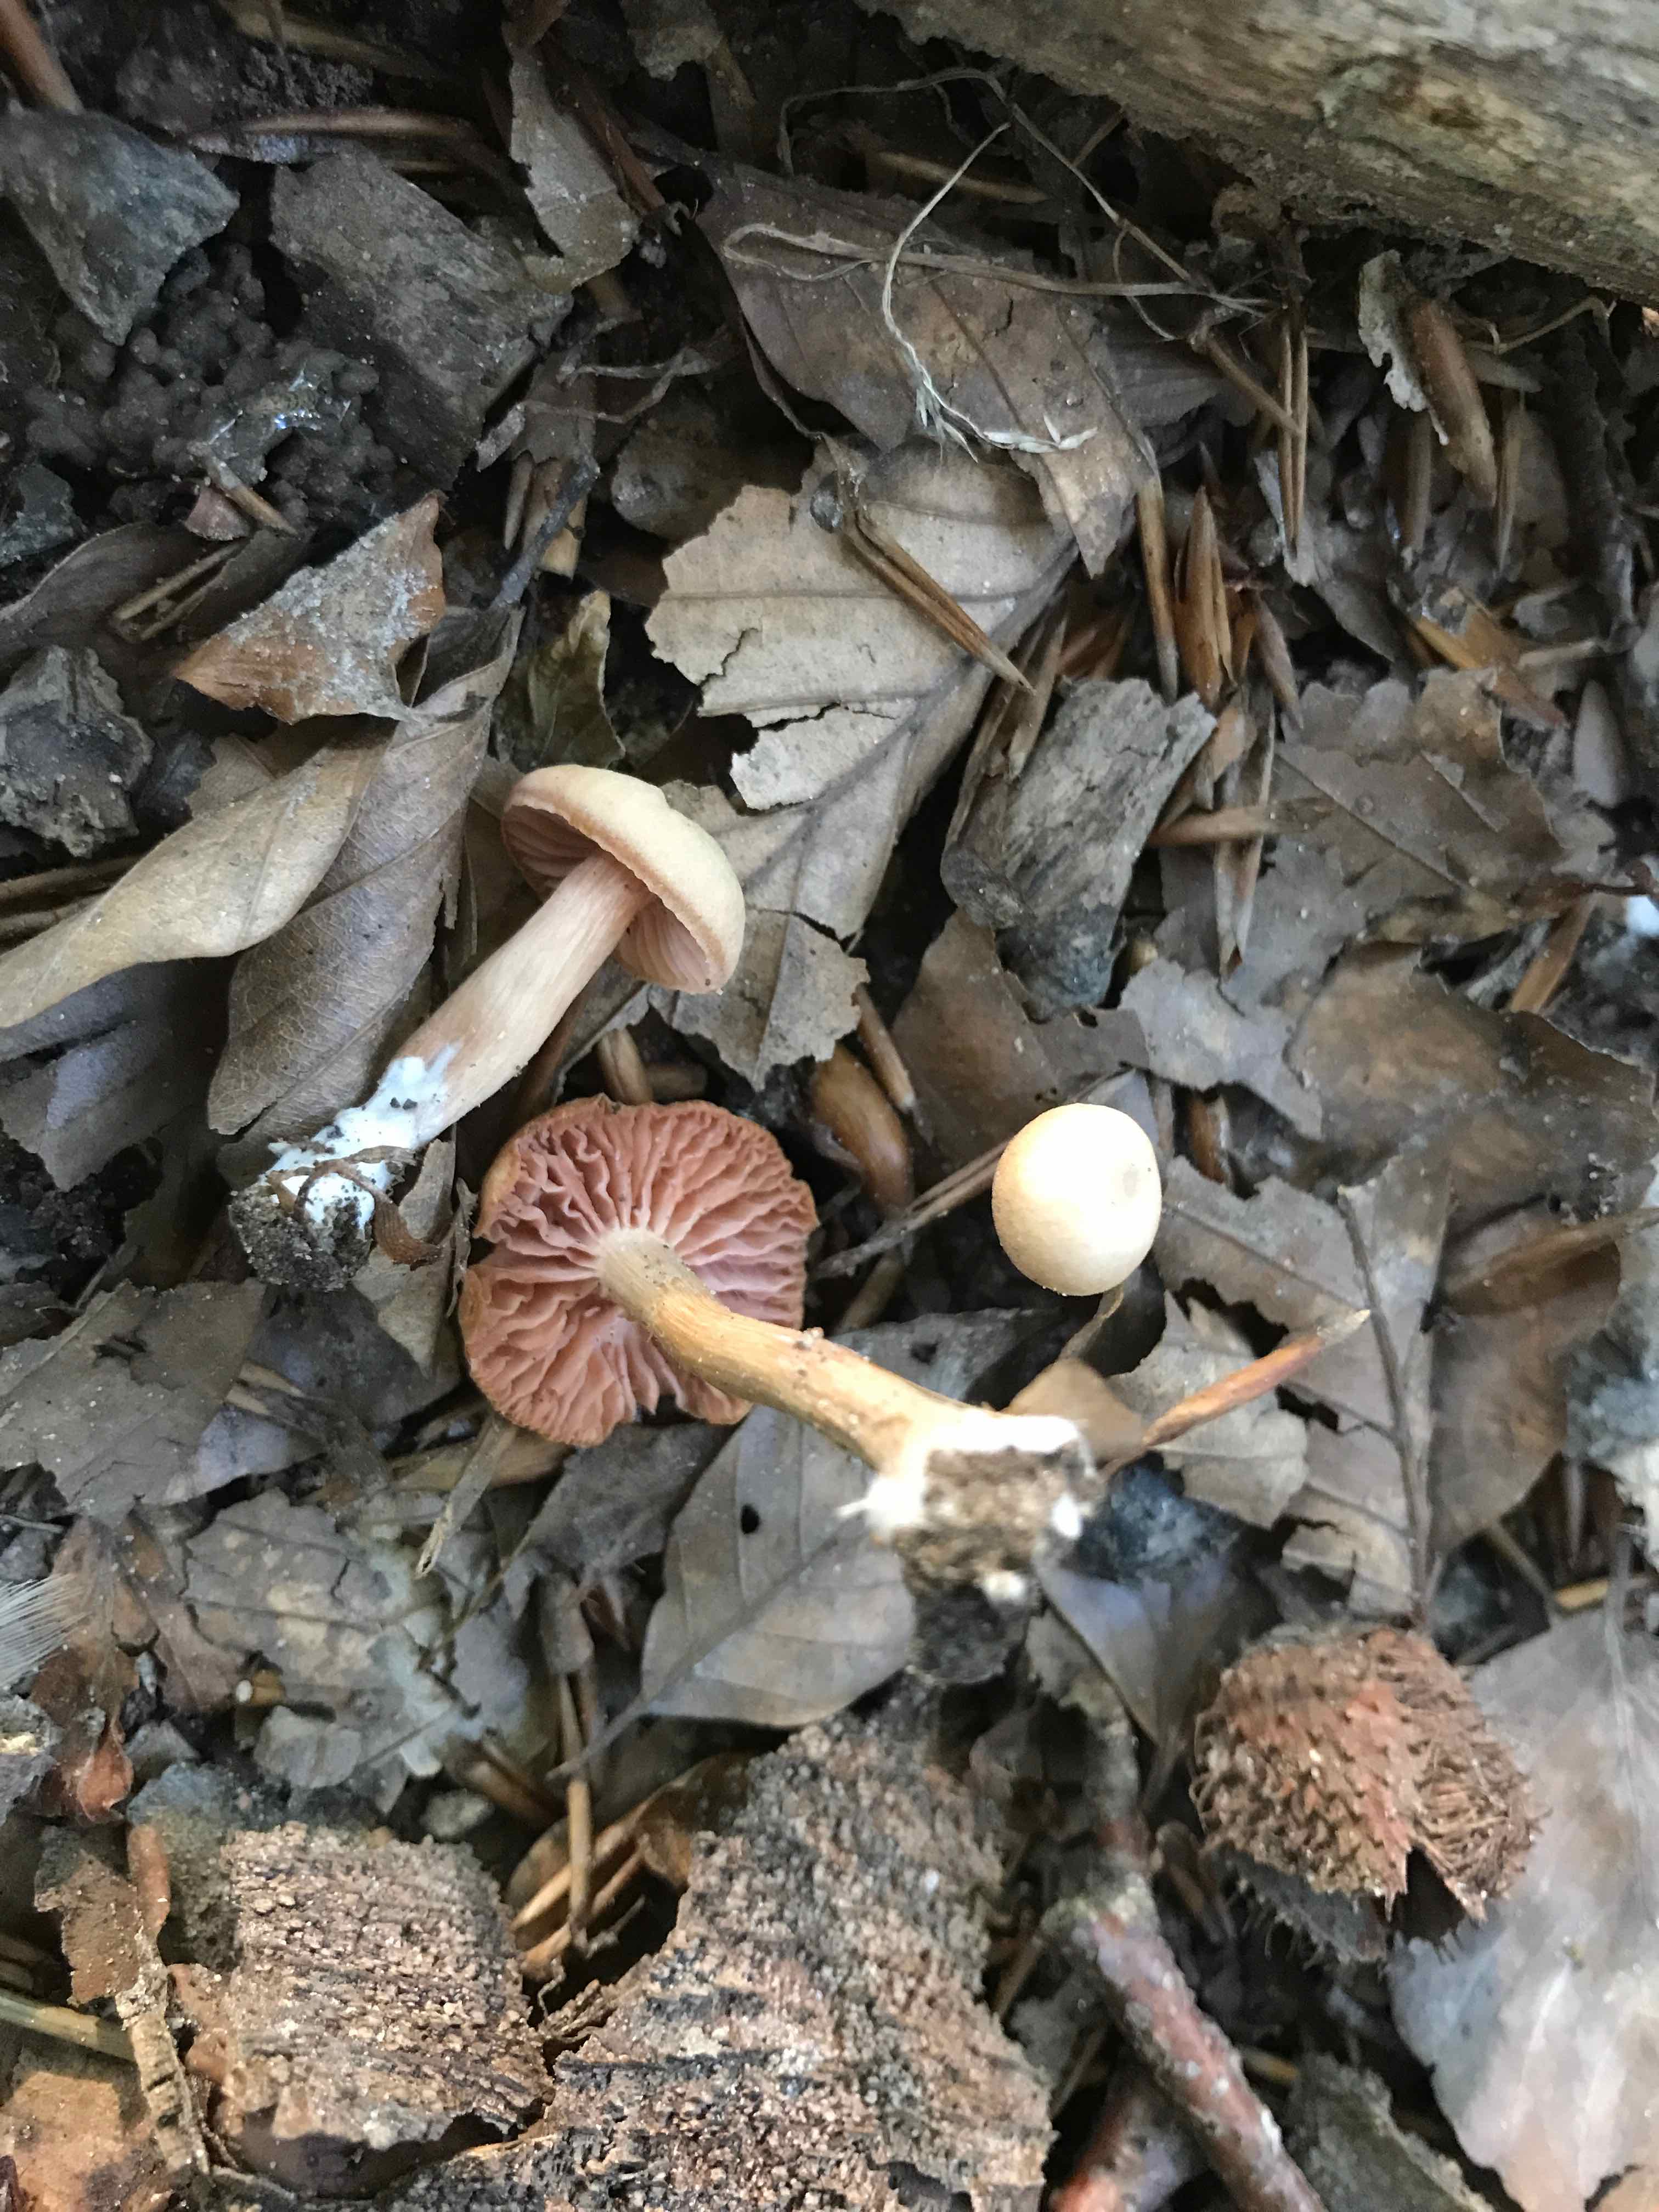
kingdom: Fungi
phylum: Basidiomycota
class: Agaricomycetes
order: Agaricales
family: Hydnangiaceae
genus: Laccaria
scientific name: Laccaria laccata
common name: rød ametysthat
